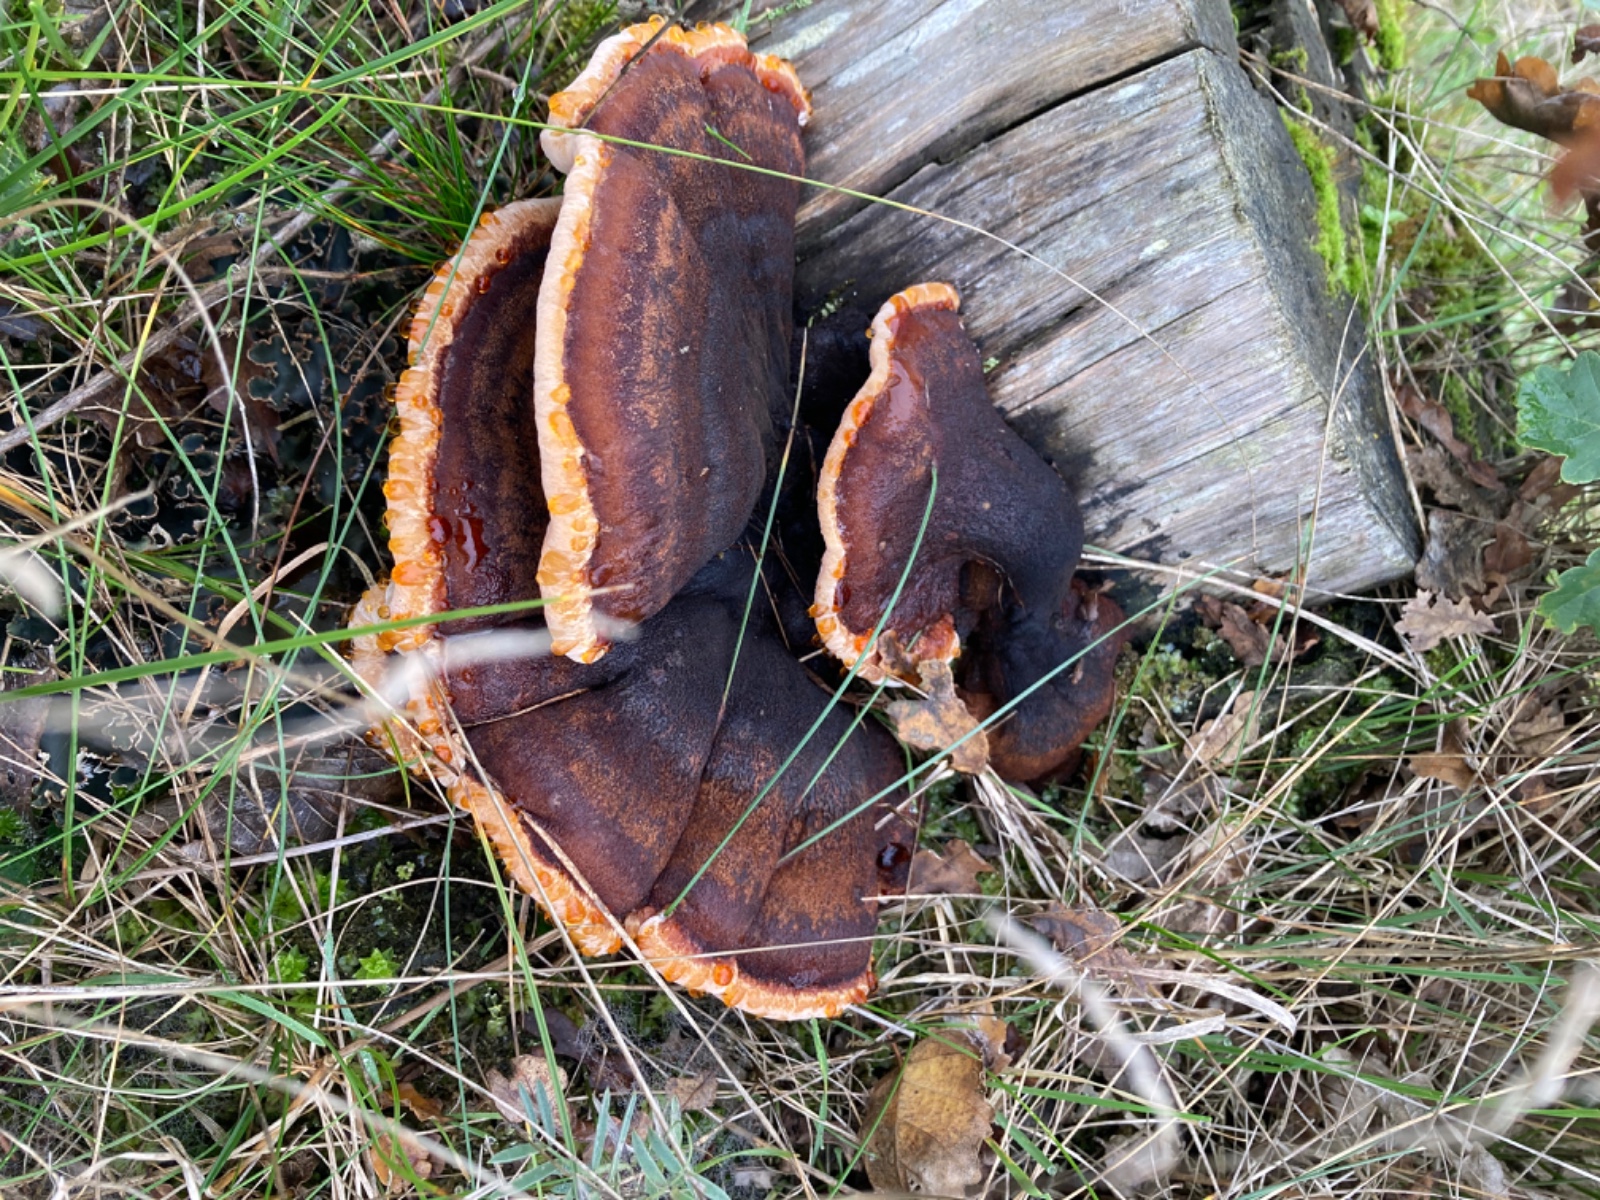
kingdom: Fungi
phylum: Basidiomycota
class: Agaricomycetes
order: Polyporales
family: Ischnodermataceae
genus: Ischnoderma
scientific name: Ischnoderma benzoinum
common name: gran-tjæreporesvamp
